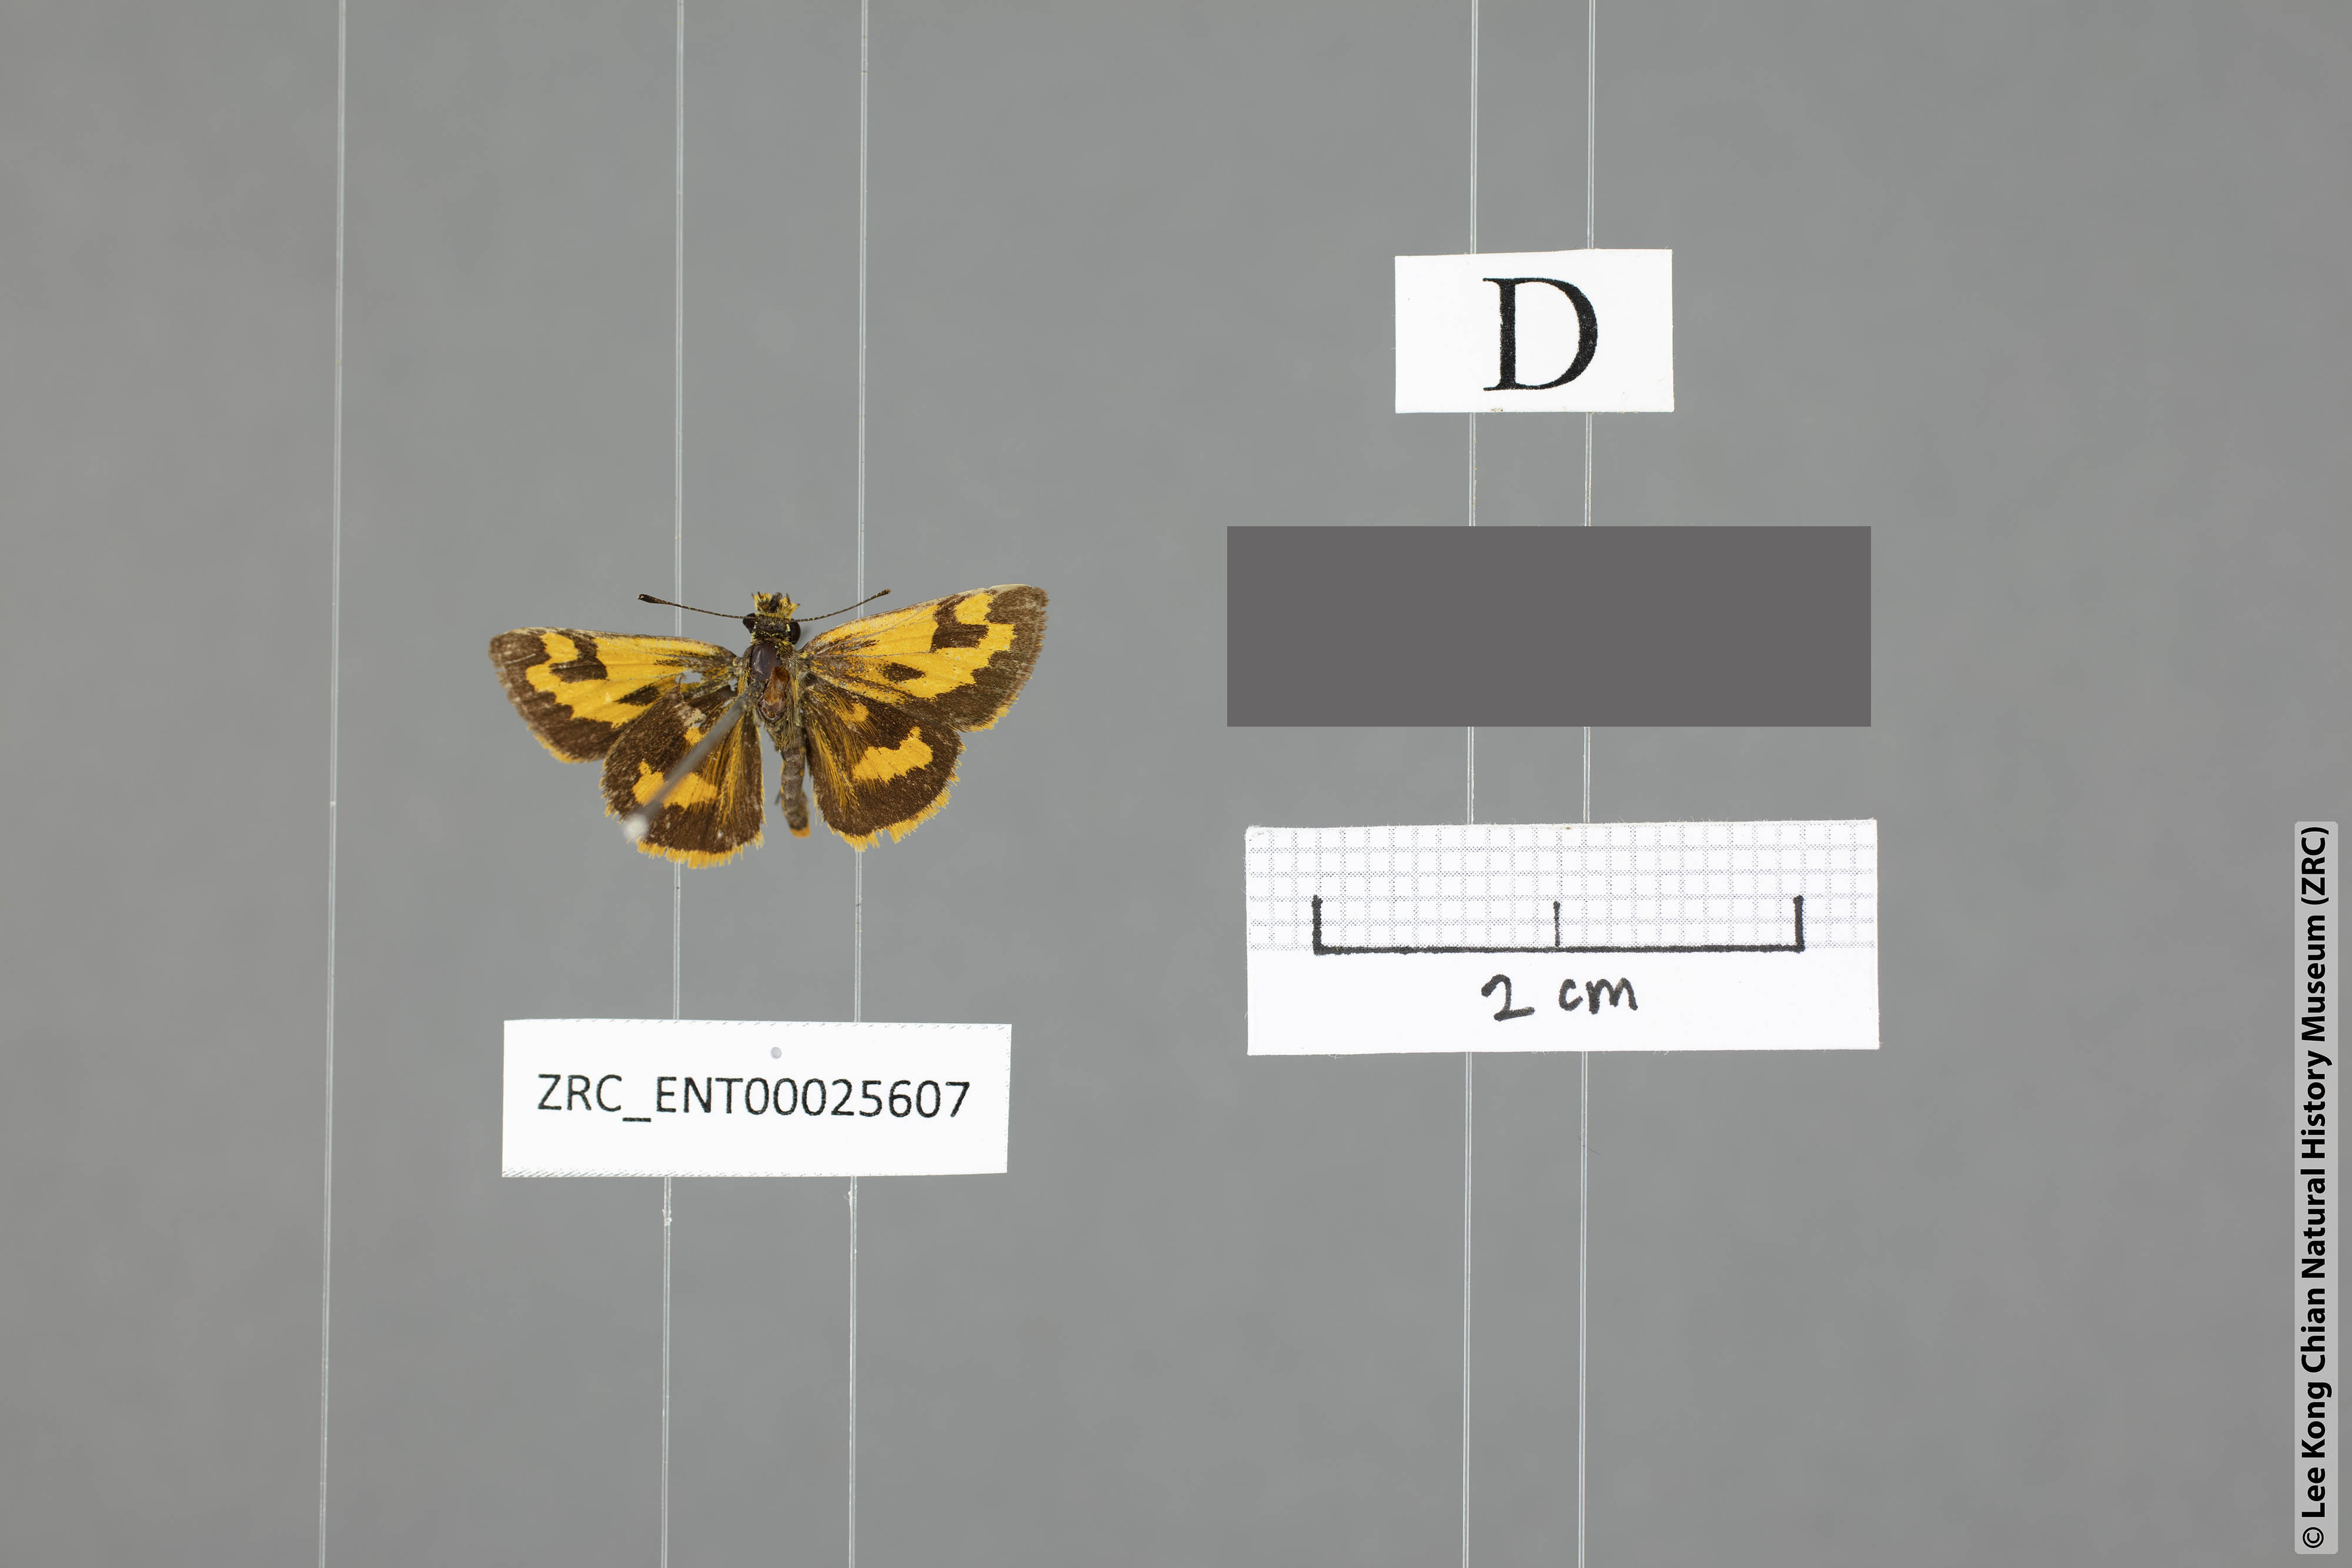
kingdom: Animalia
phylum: Arthropoda
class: Insecta
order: Lepidoptera
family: Hesperiidae
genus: Taractrocera
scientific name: Taractrocera archias
